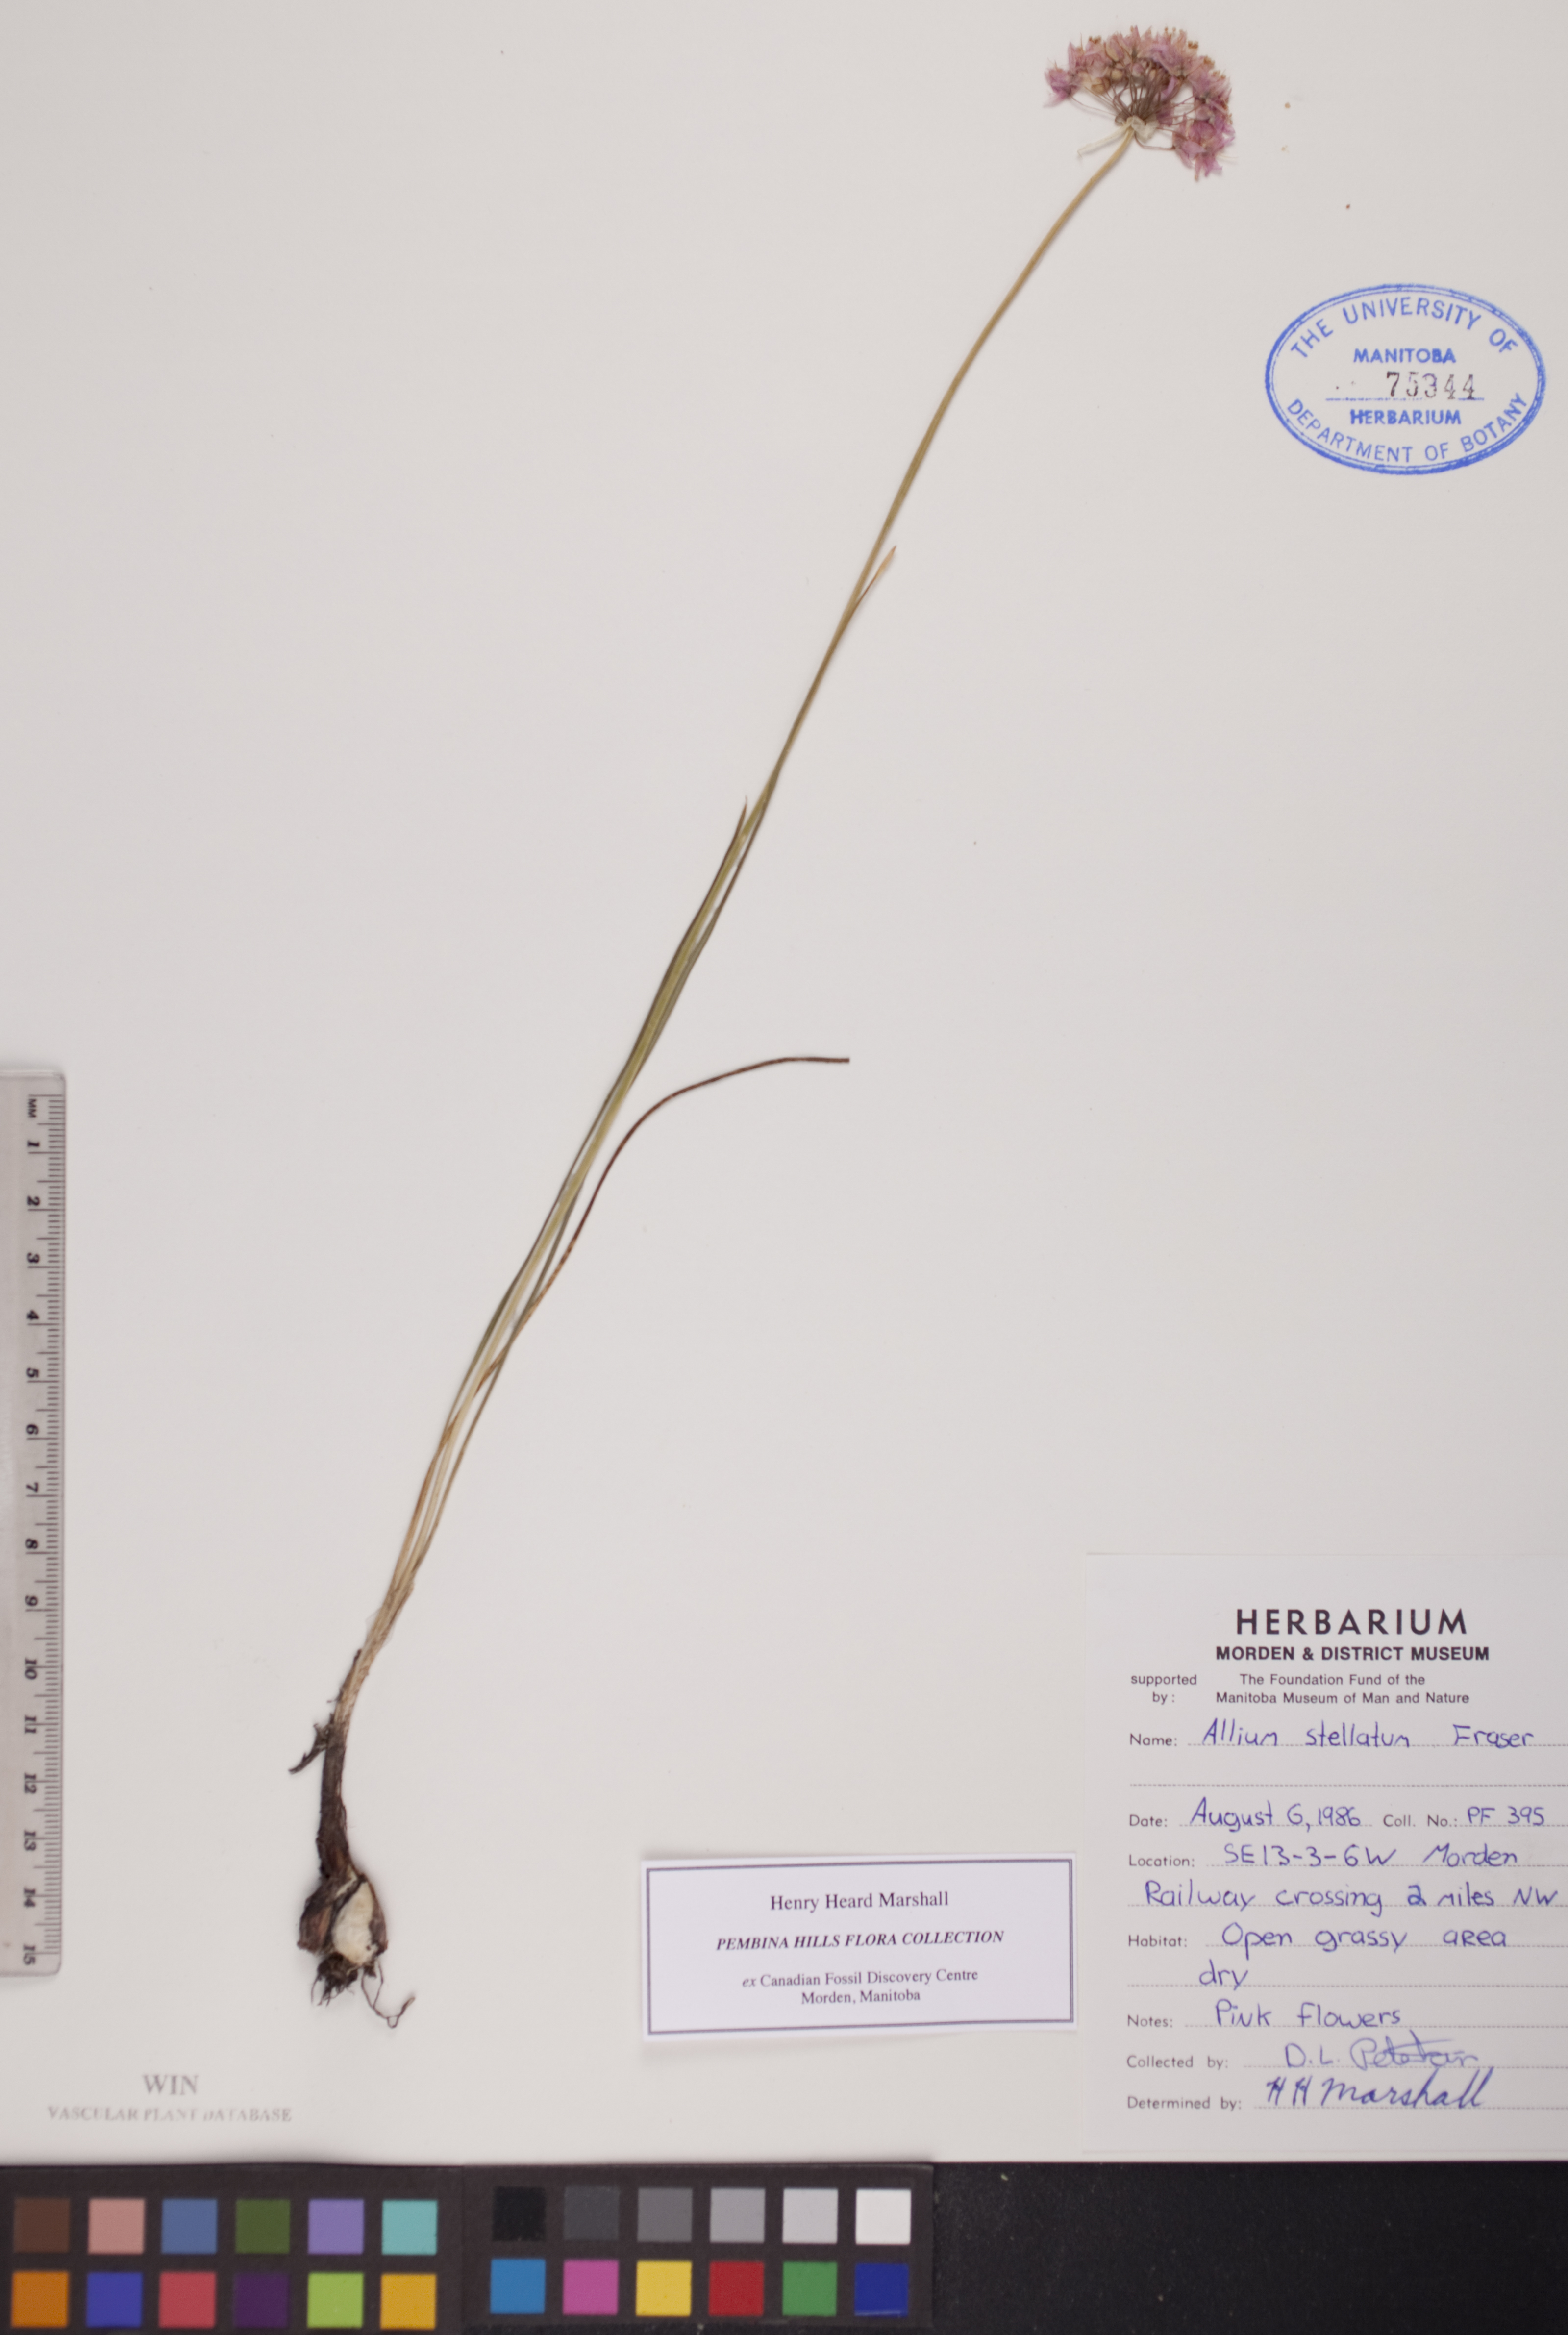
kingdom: Plantae
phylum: Tracheophyta
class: Liliopsida
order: Asparagales
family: Amaryllidaceae
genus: Allium
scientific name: Allium stellatum
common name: Autumn onion
